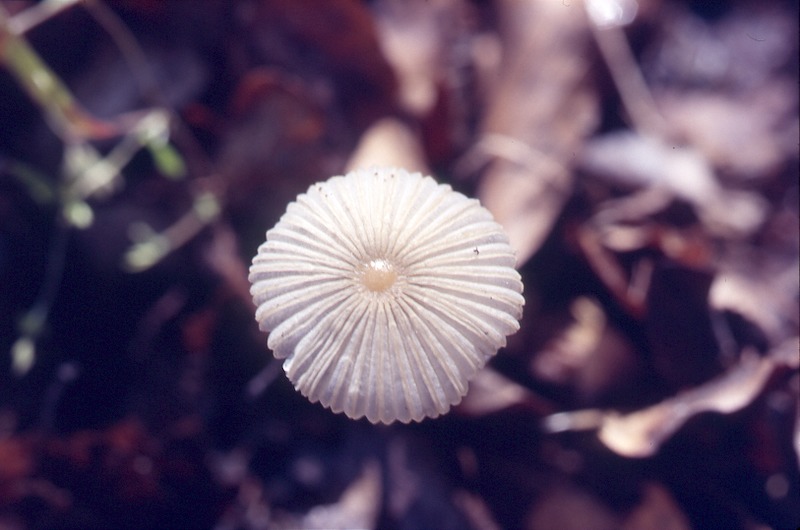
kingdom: Fungi
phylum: Basidiomycota
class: Agaricomycetes
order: Agaricales
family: Psathyrellaceae
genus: Parasola
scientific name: Parasola plicatilis
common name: Pleated inkcap
